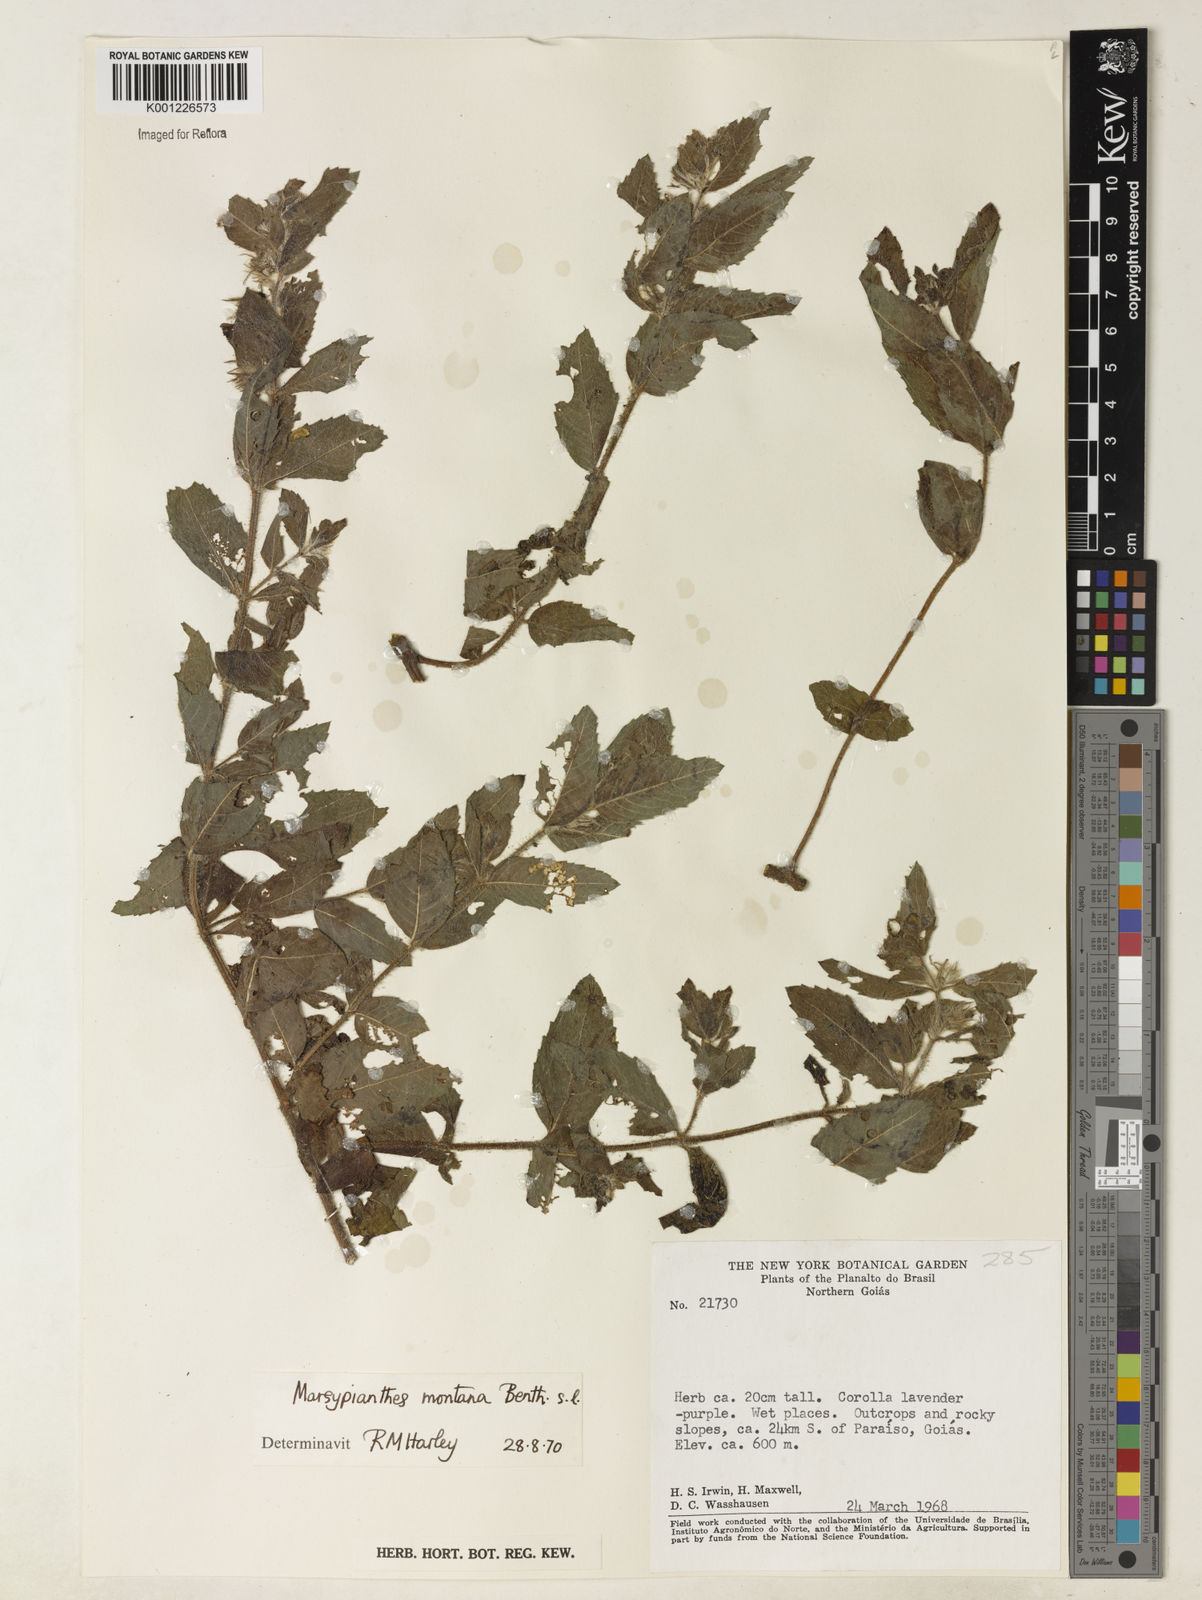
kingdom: Plantae
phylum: Tracheophyta
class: Magnoliopsida
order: Lamiales
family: Lamiaceae
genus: Marsypianthes
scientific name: Marsypianthes burchellii
